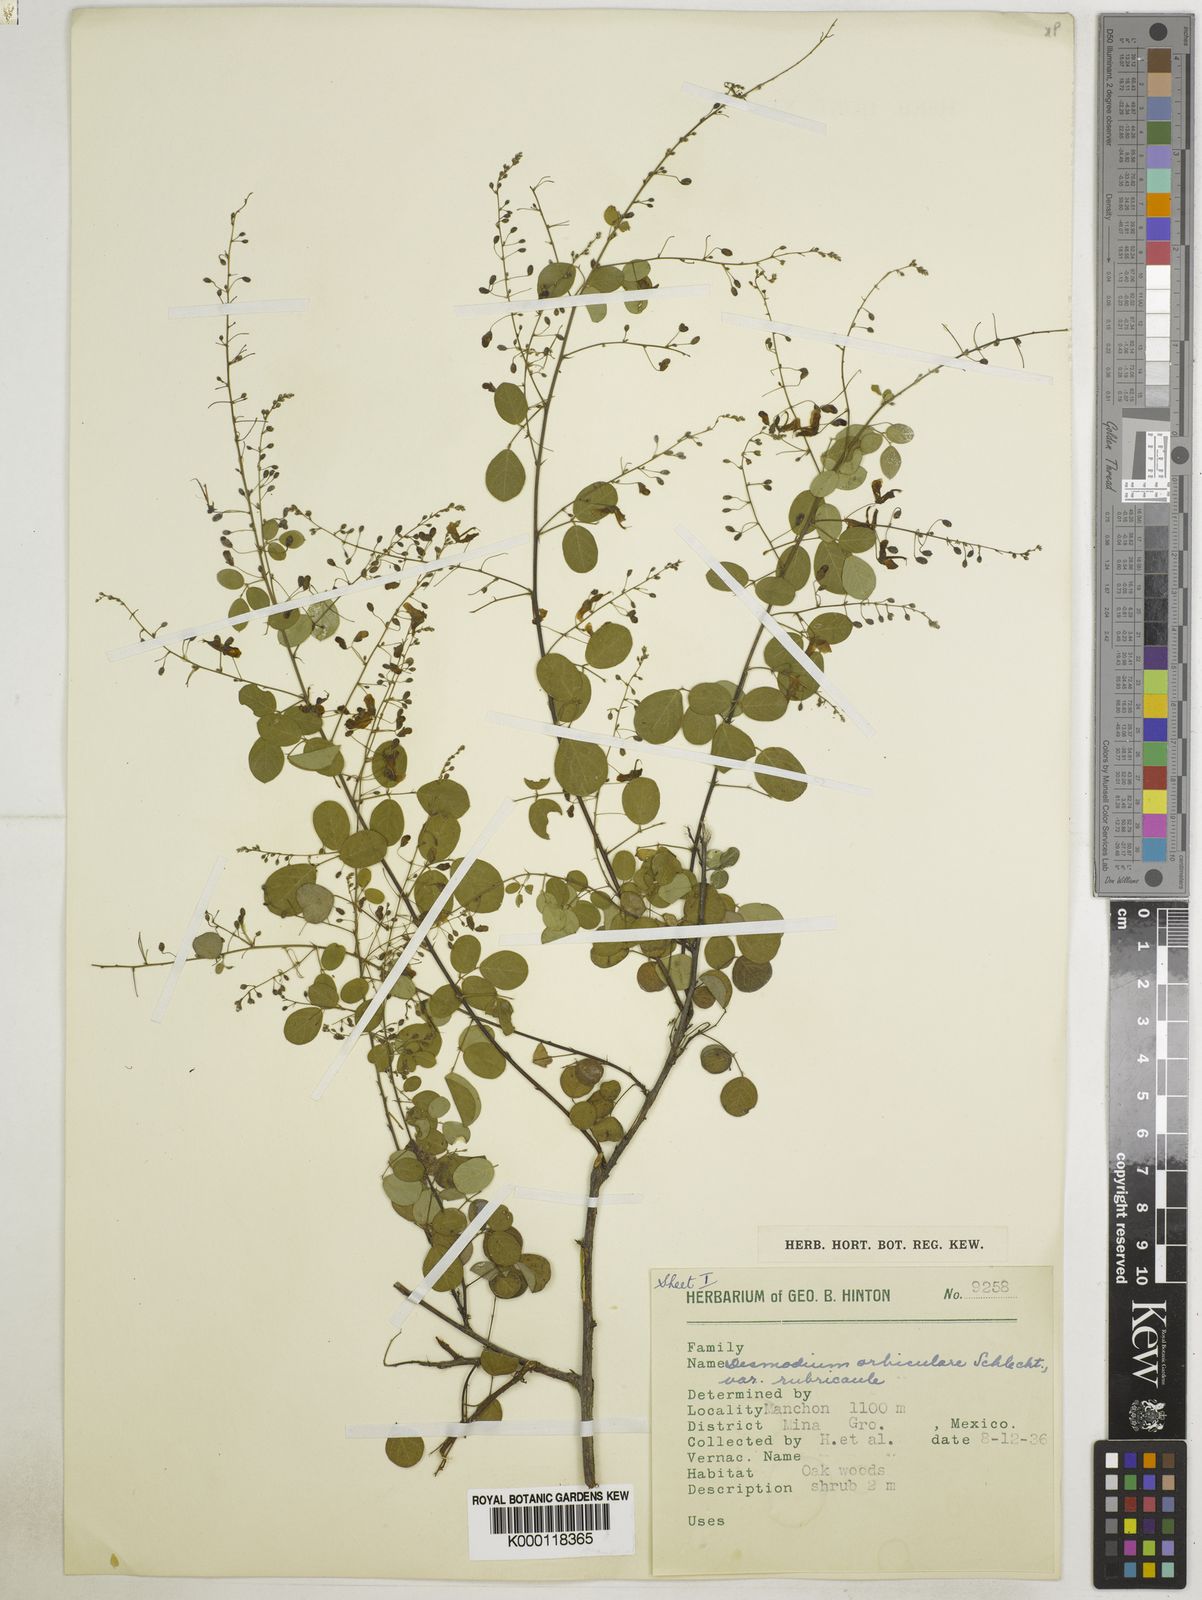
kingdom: Plantae
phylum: Tracheophyta
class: Magnoliopsida
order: Fabales
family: Fabaceae
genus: Desmodium
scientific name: Desmodium orbiculare
